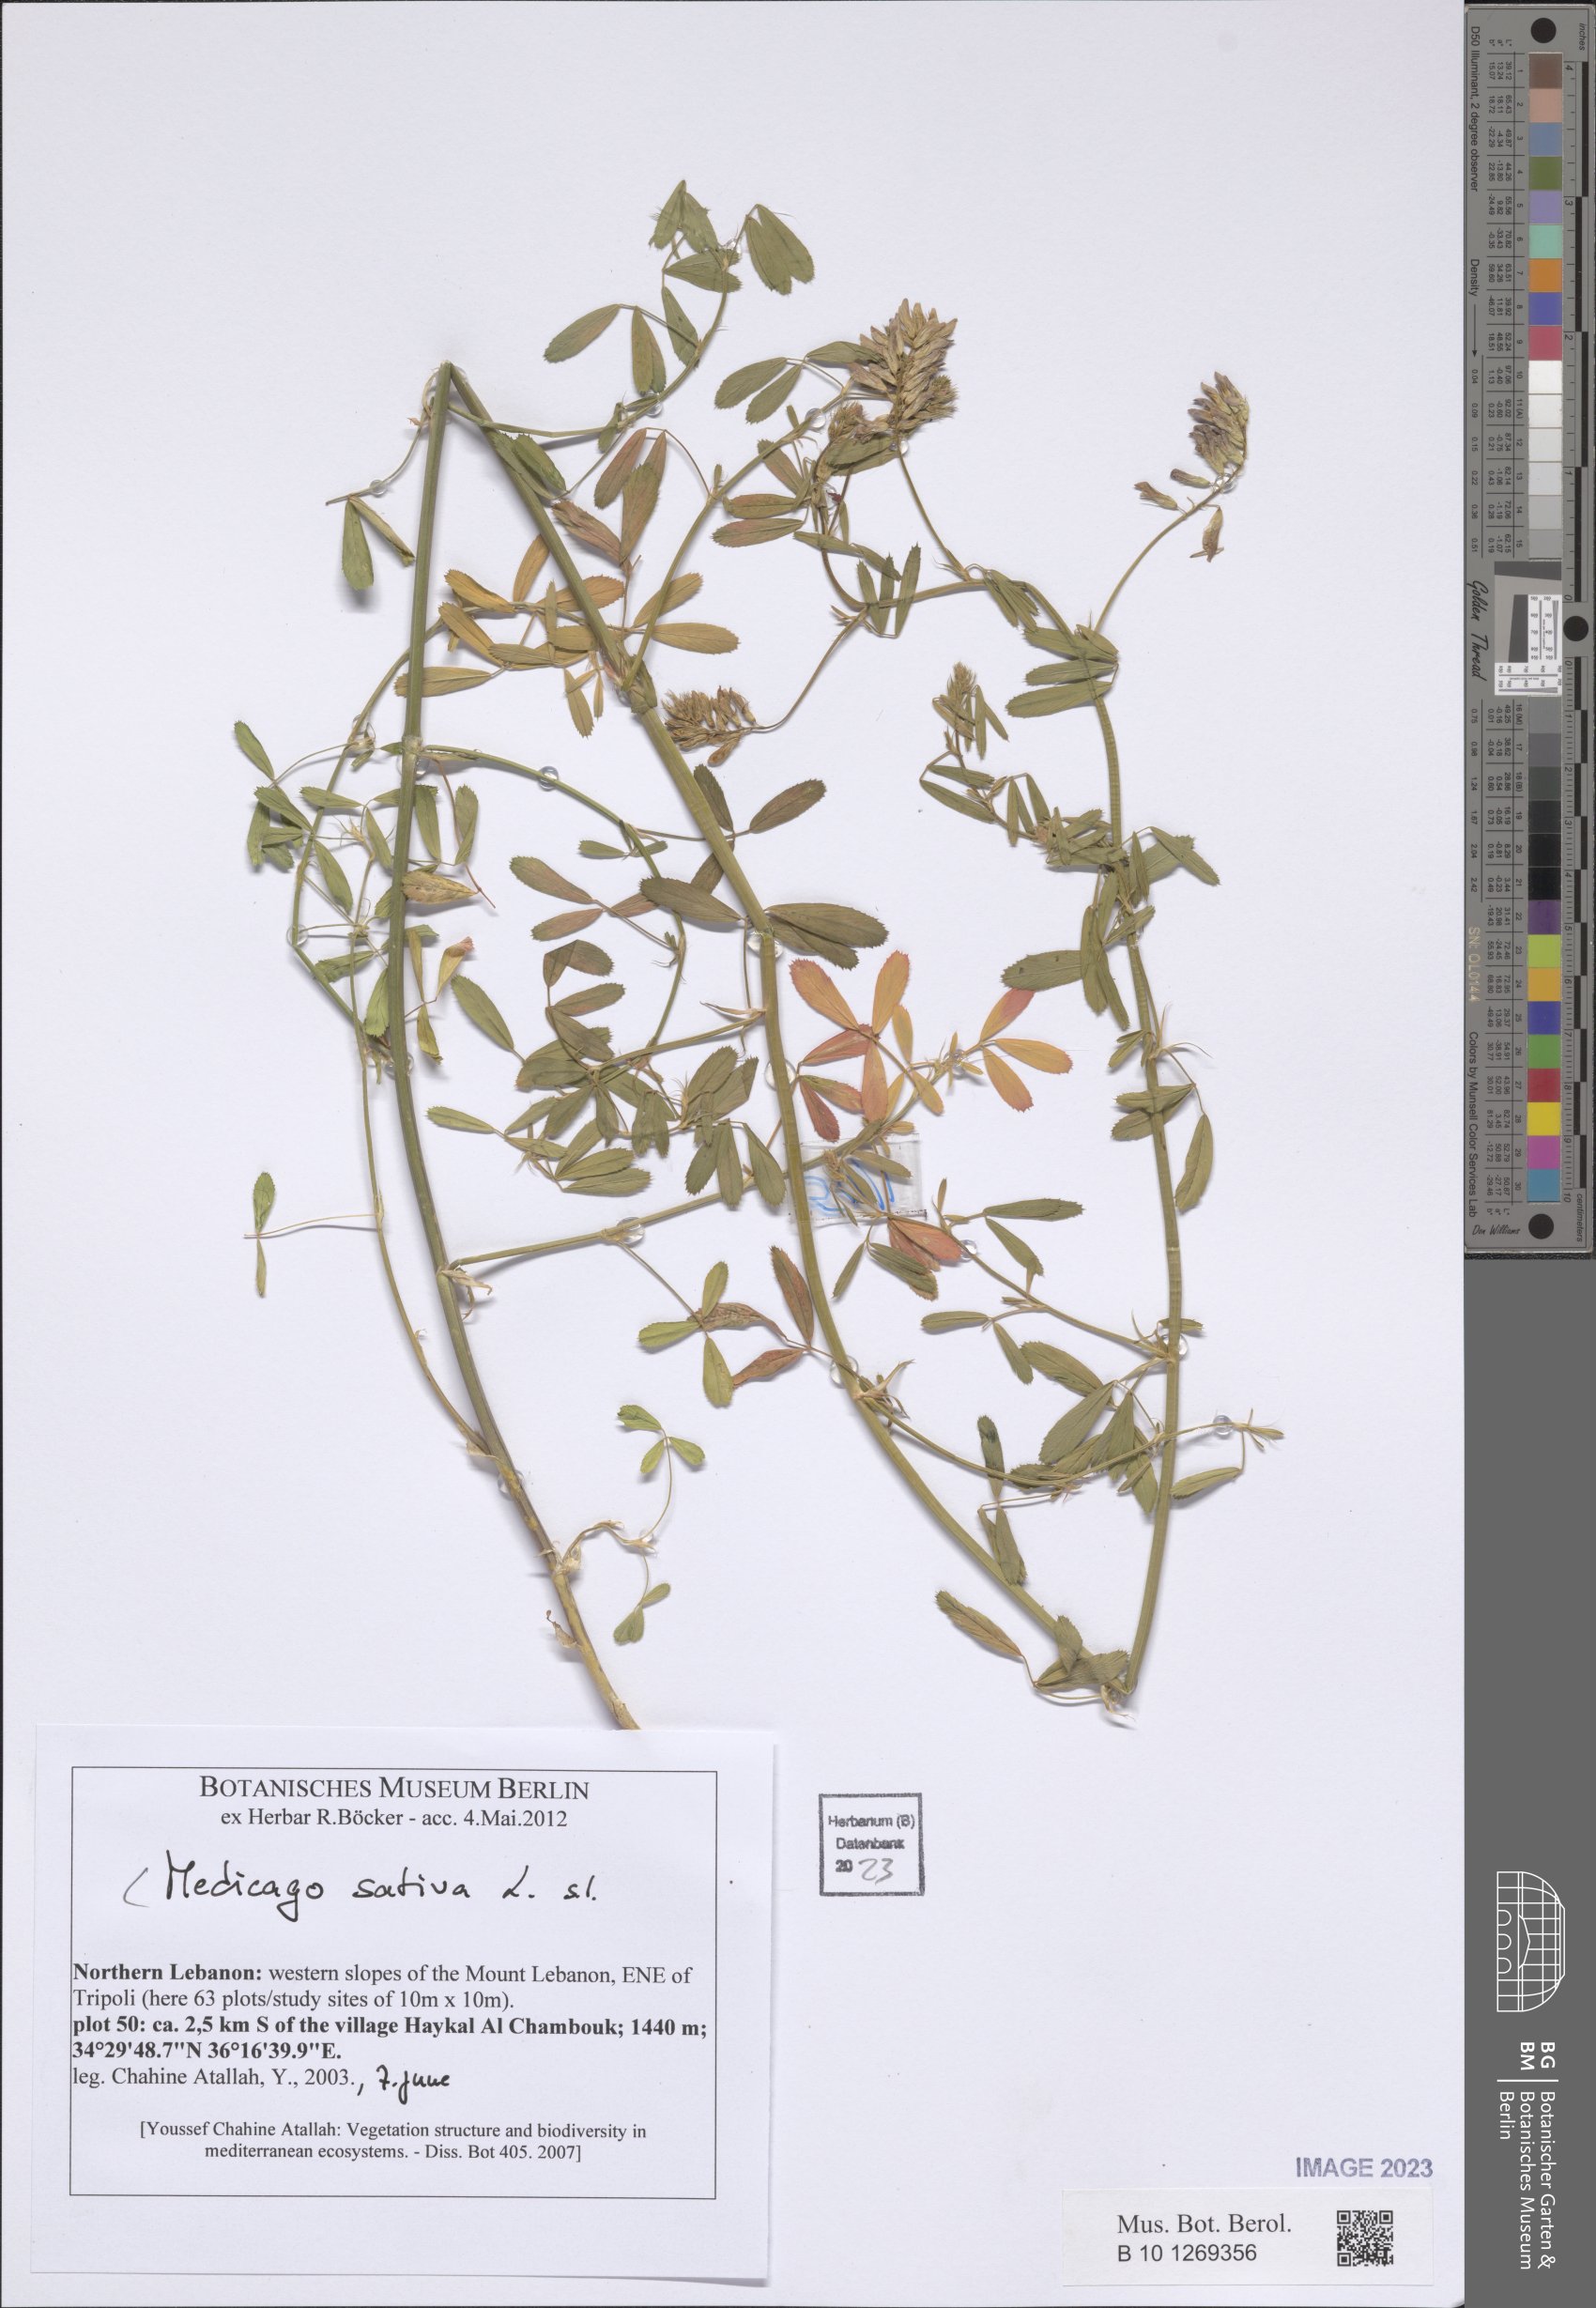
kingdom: Plantae
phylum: Tracheophyta
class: Magnoliopsida
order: Fabales
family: Fabaceae
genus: Medicago
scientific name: Medicago sativa
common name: Alfalfa
